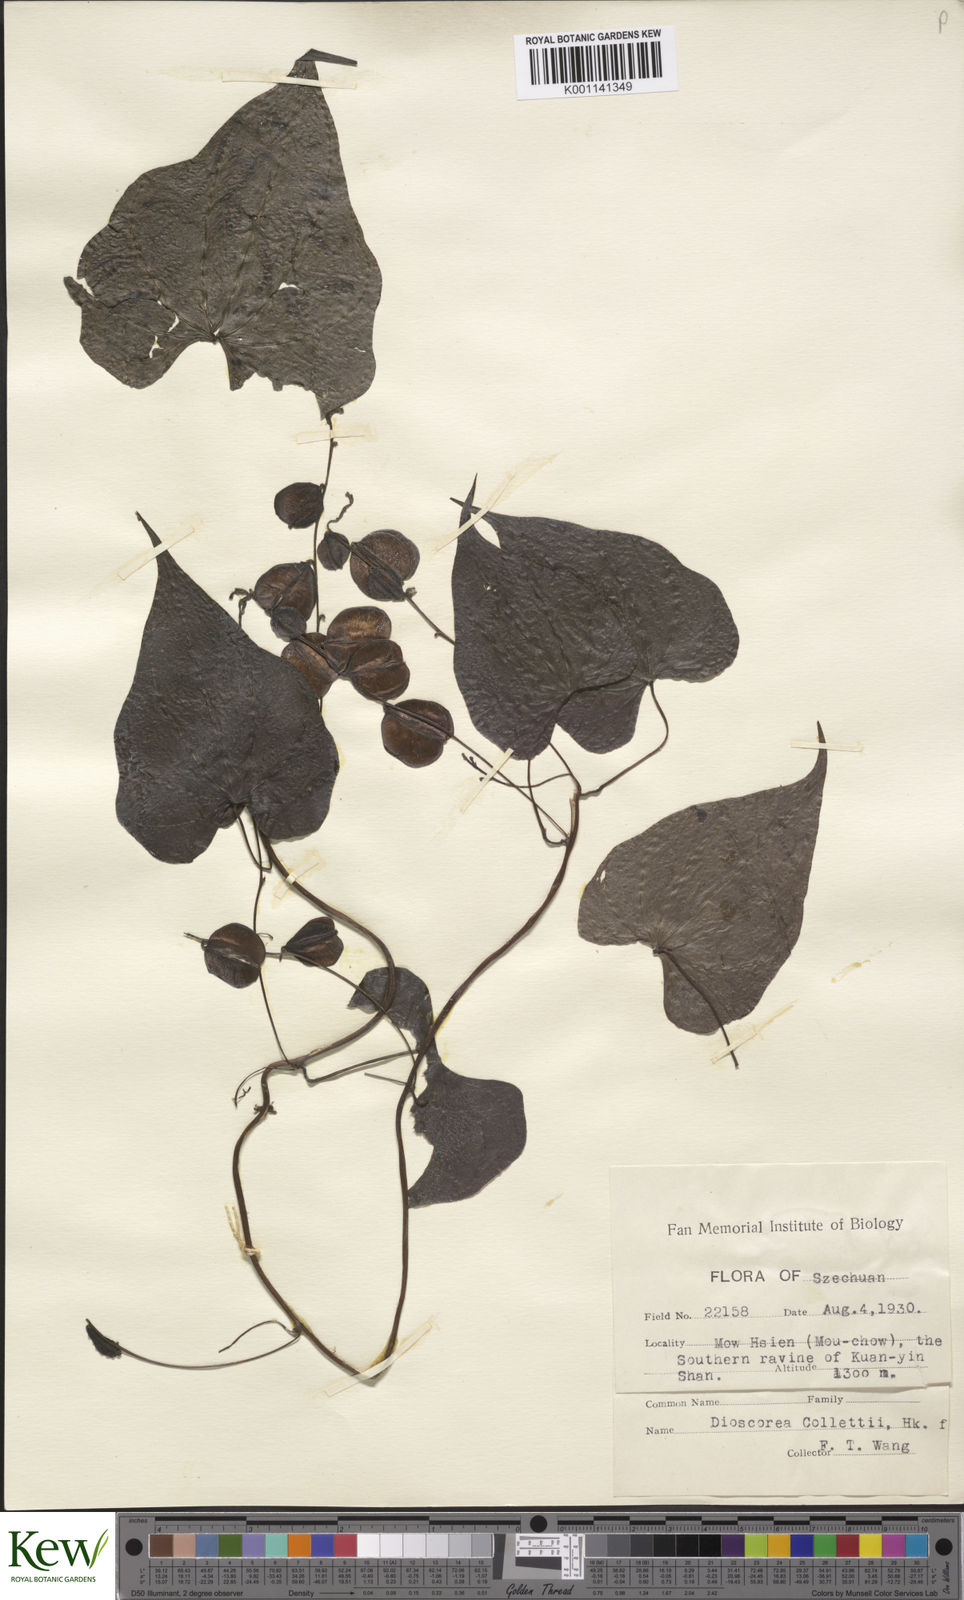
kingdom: Plantae
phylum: Tracheophyta
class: Liliopsida
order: Dioscoreales
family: Dioscoreaceae
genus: Dioscorea
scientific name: Dioscorea collettii
